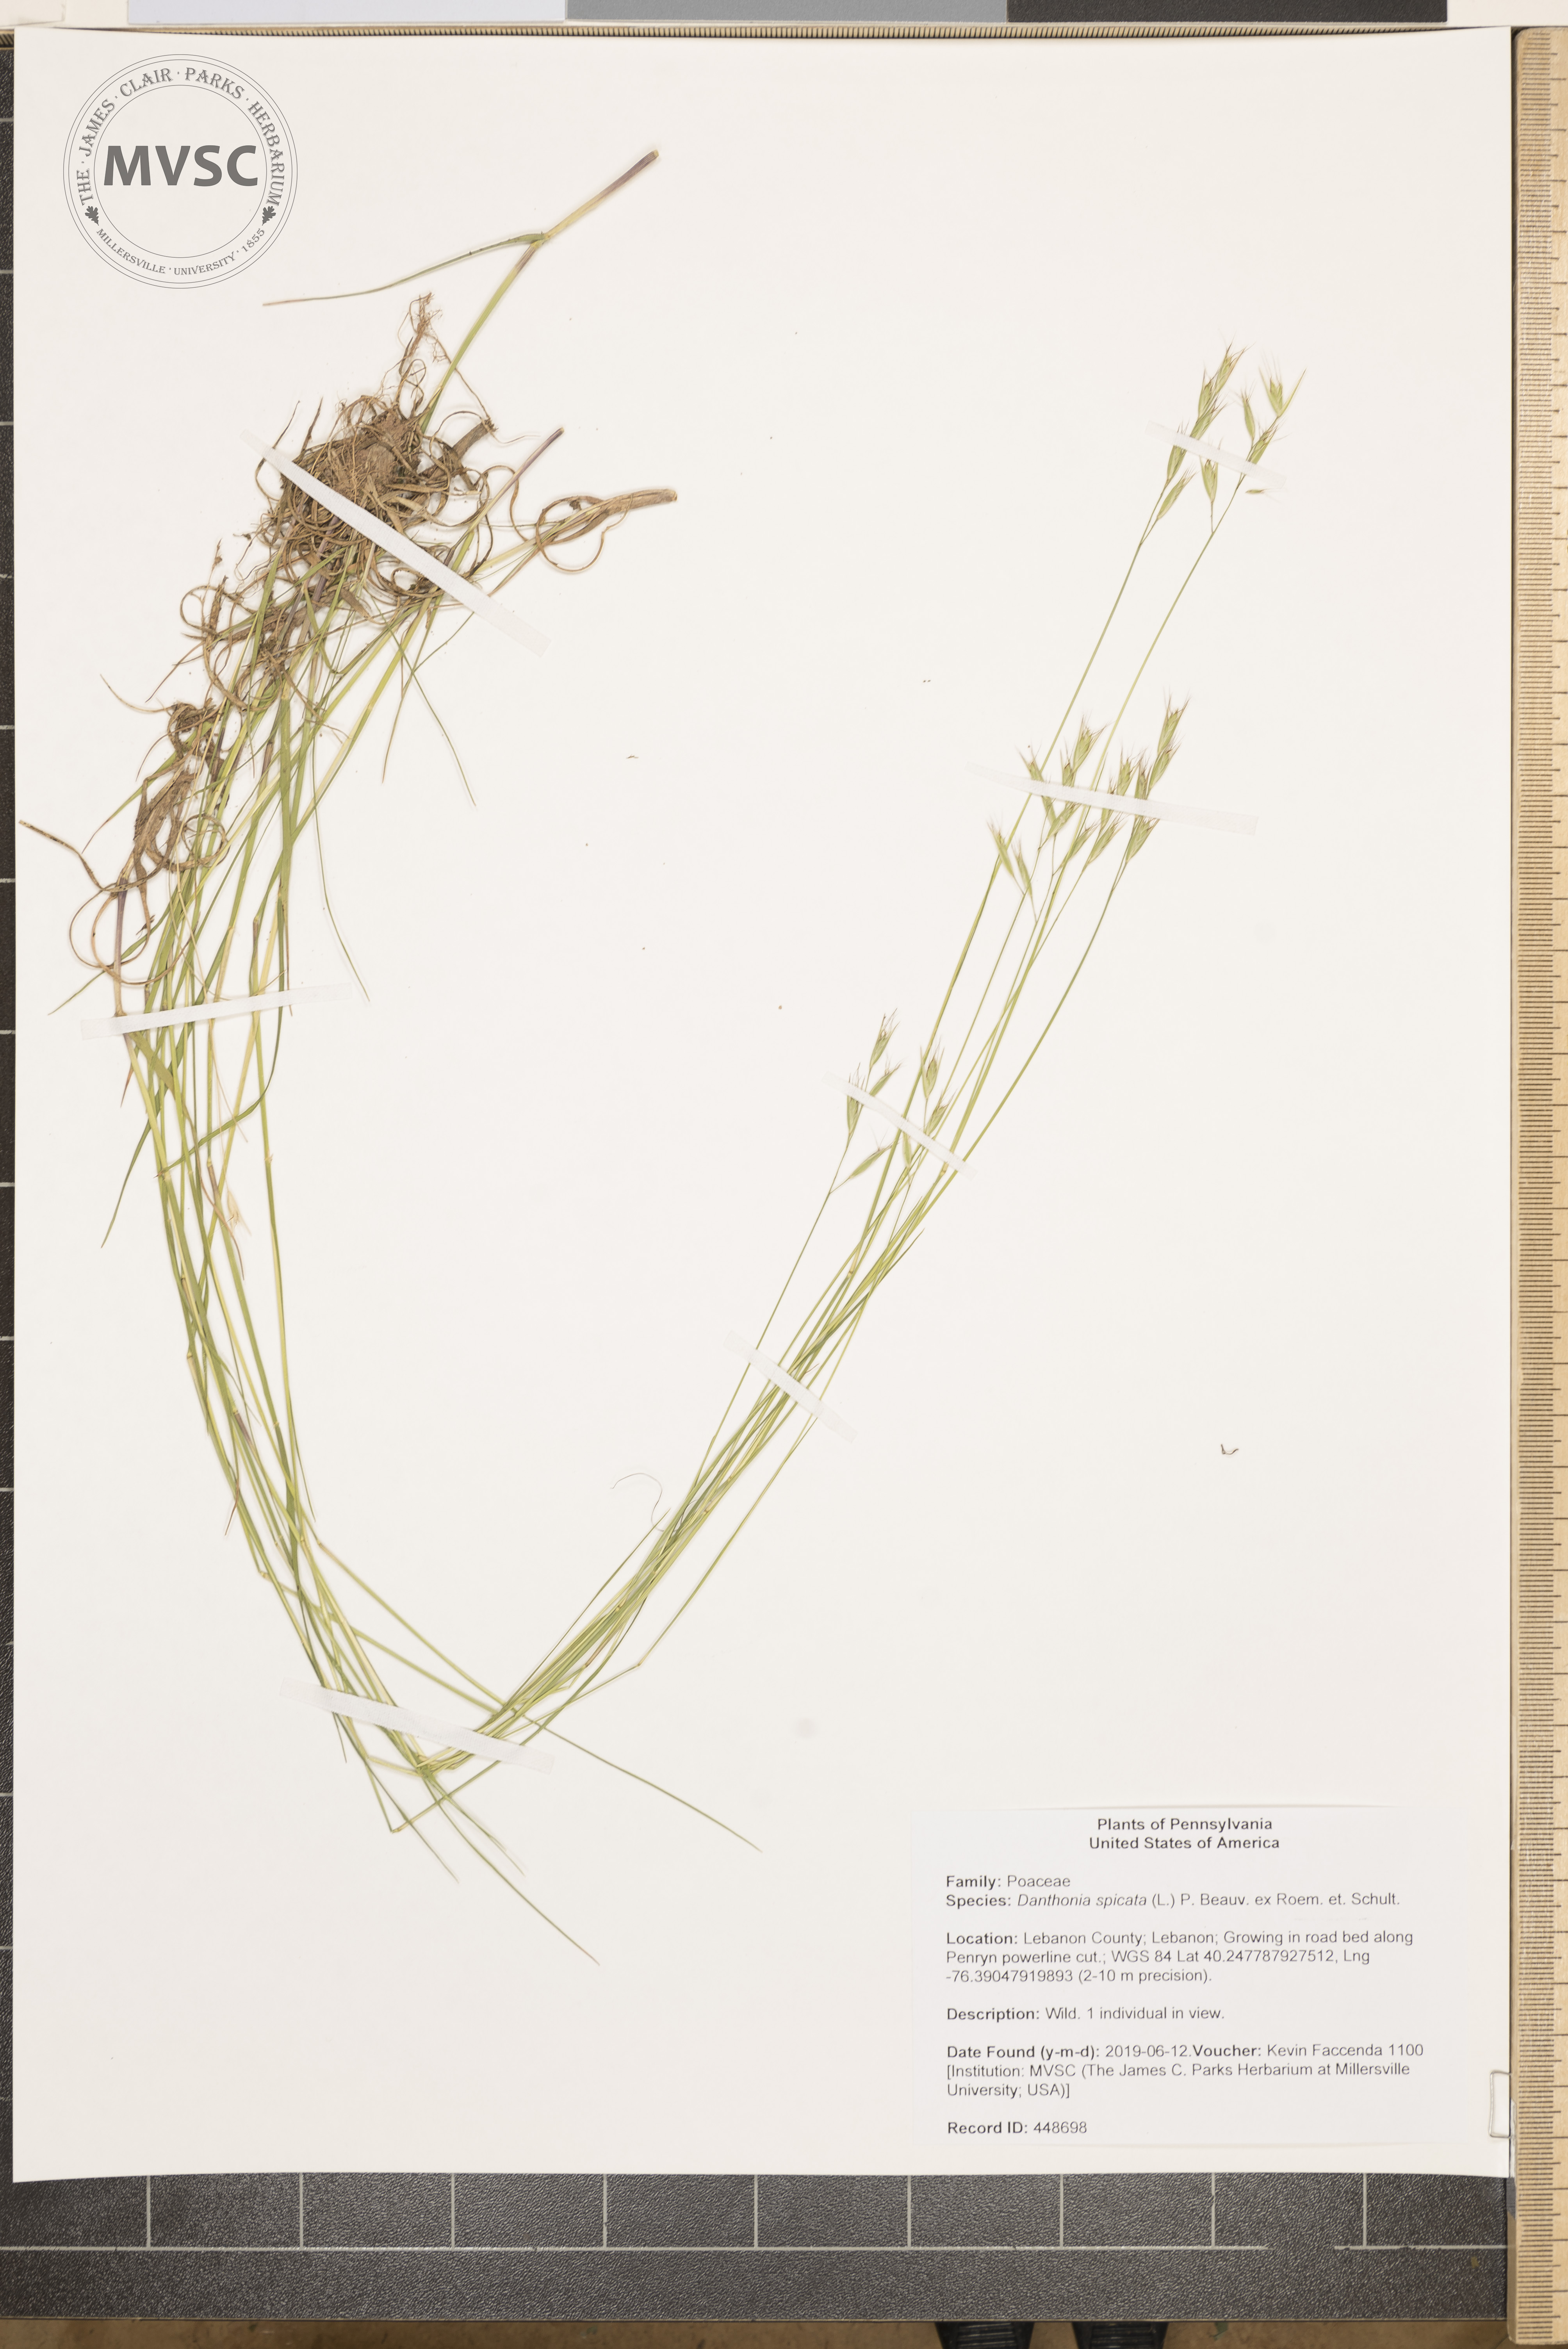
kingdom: Plantae
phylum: Tracheophyta
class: Liliopsida
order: Poales
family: Poaceae
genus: Danthonia
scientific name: Danthonia spicata
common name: Common wild oatgrass
